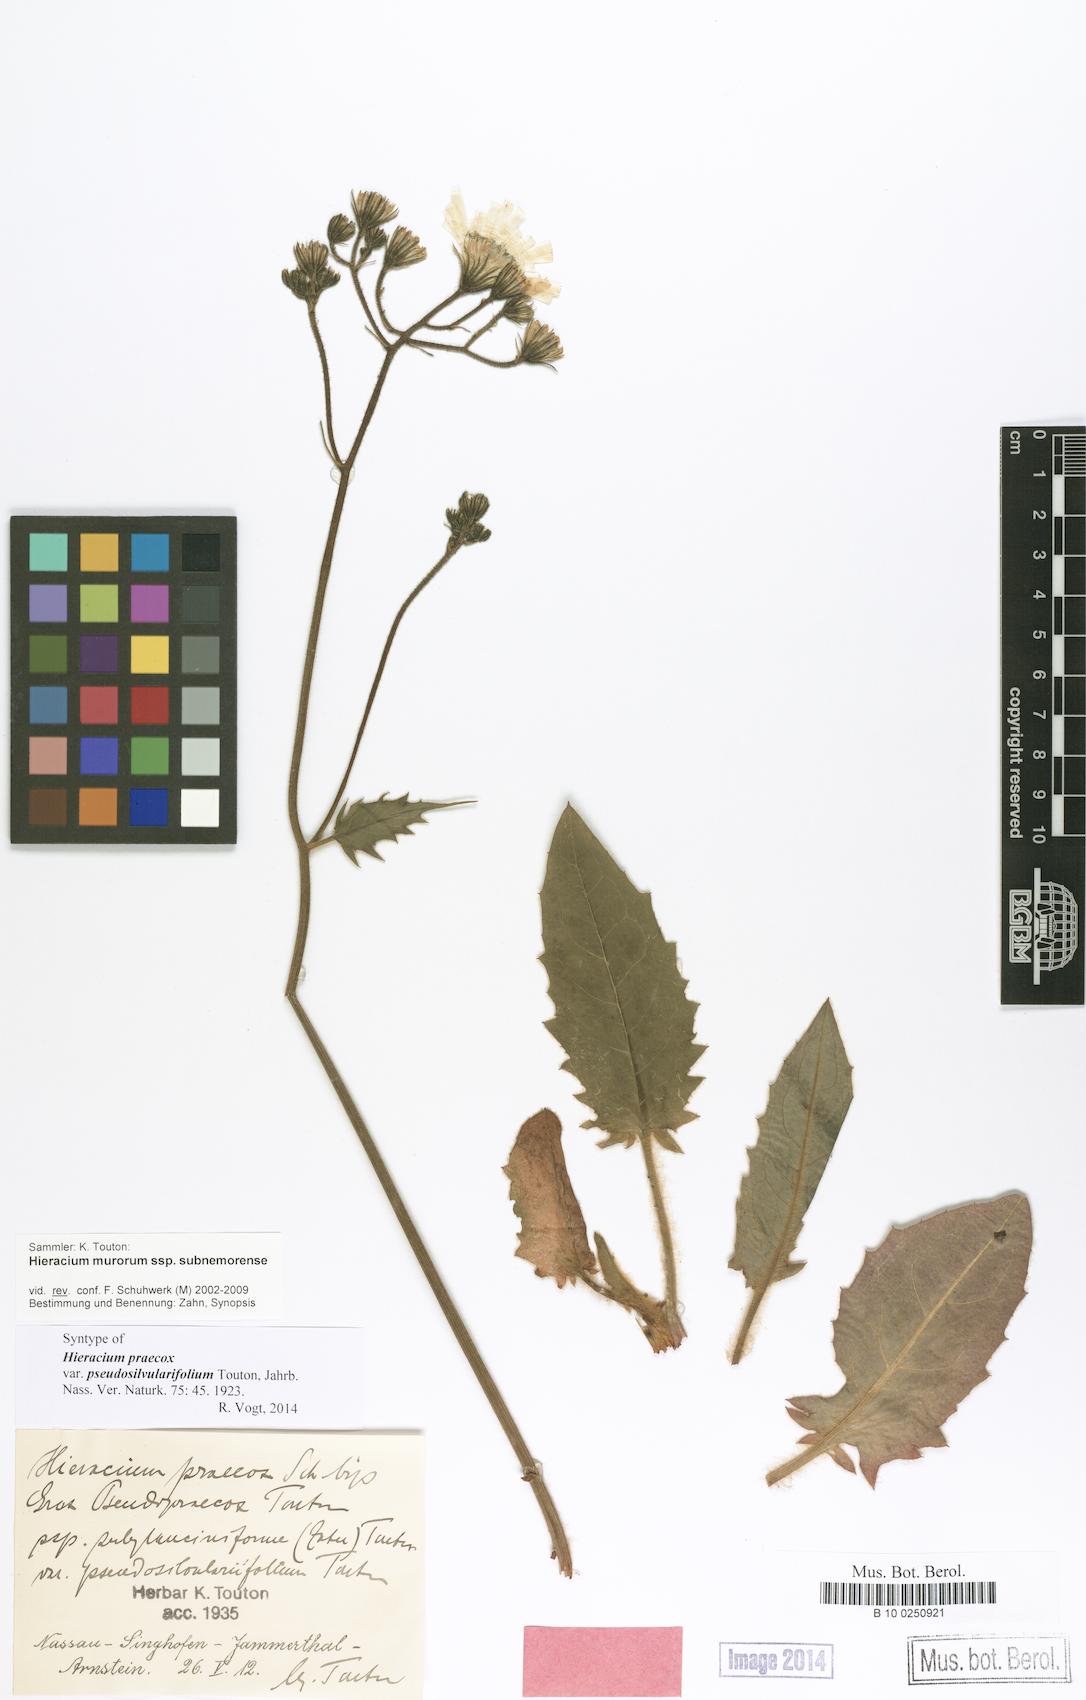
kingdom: Plantae
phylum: Tracheophyta
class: Magnoliopsida
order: Asterales
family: Asteraceae
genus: Hieracium
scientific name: Hieracium praecox
